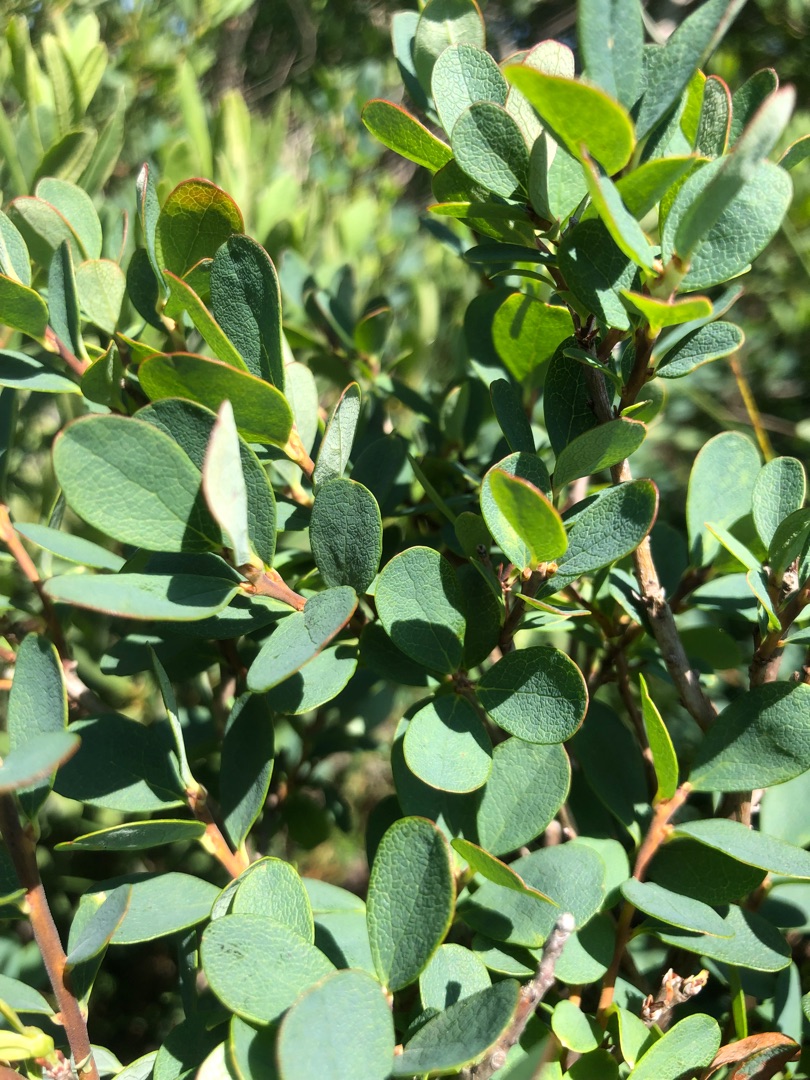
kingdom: Plantae
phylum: Tracheophyta
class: Magnoliopsida
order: Ericales
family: Ericaceae
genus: Vaccinium
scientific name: Vaccinium uliginosum
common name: Mose-bølle
